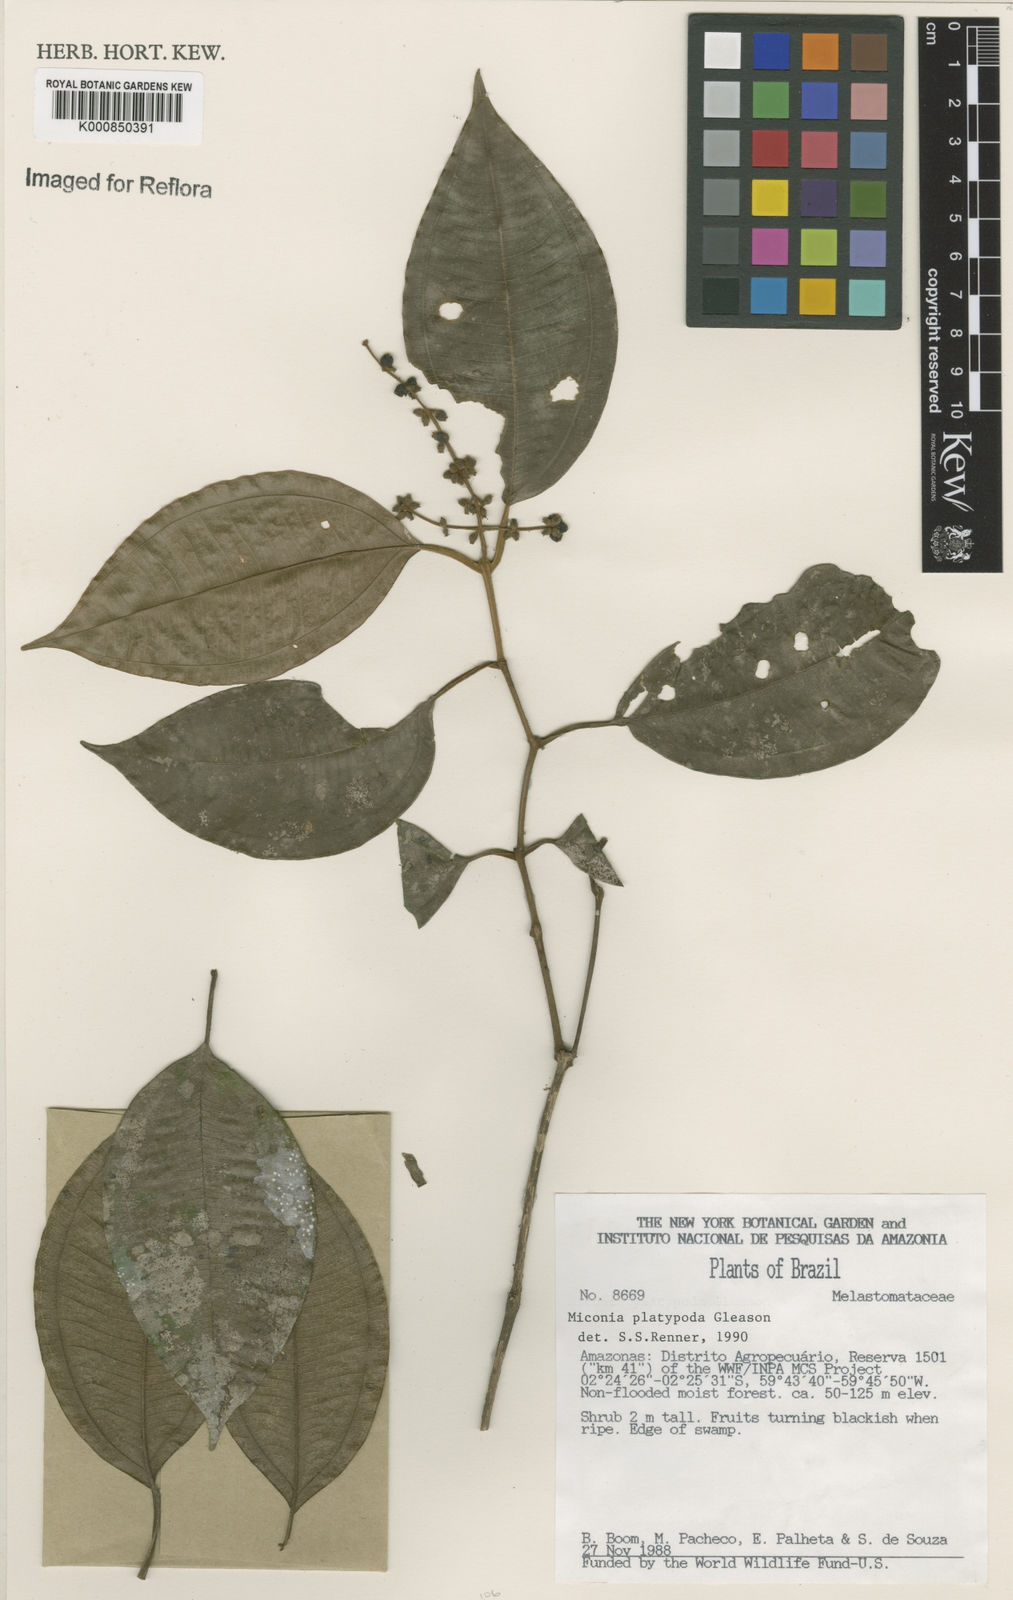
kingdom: Plantae
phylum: Tracheophyta
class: Magnoliopsida
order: Myrtales
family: Melastomataceae
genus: Miconia
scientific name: Miconia platypoda
